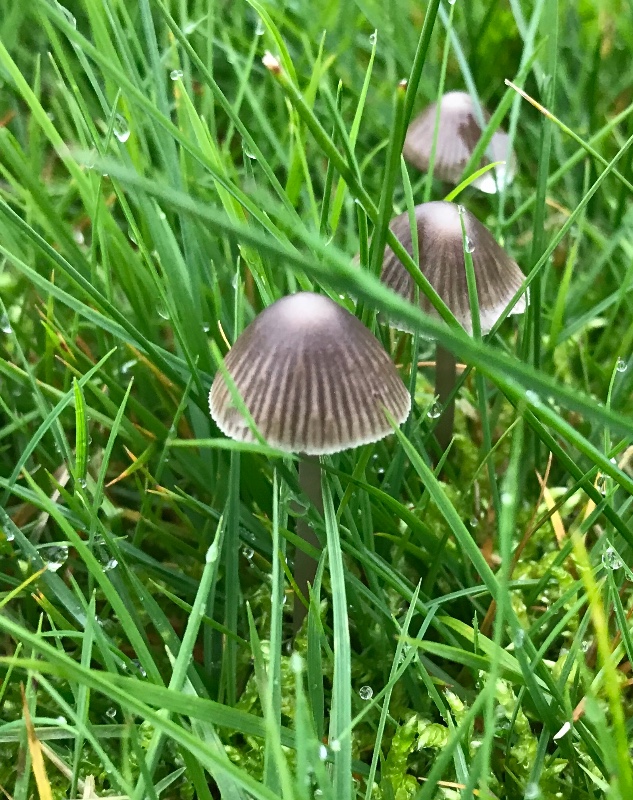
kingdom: Fungi
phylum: Basidiomycota
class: Agaricomycetes
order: Agaricales
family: Mycenaceae
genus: Mycena
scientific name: Mycena aetites
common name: plæne-huesvamp
